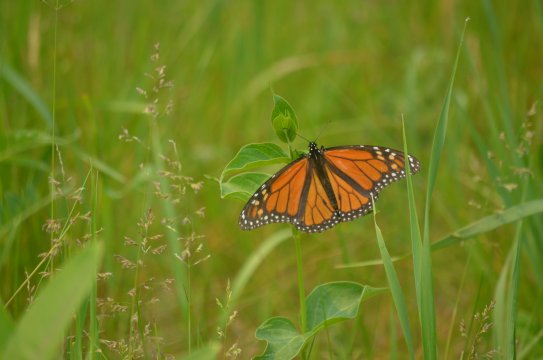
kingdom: Animalia
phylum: Arthropoda
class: Insecta
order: Lepidoptera
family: Nymphalidae
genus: Danaus
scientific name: Danaus plexippus
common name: Monarch
